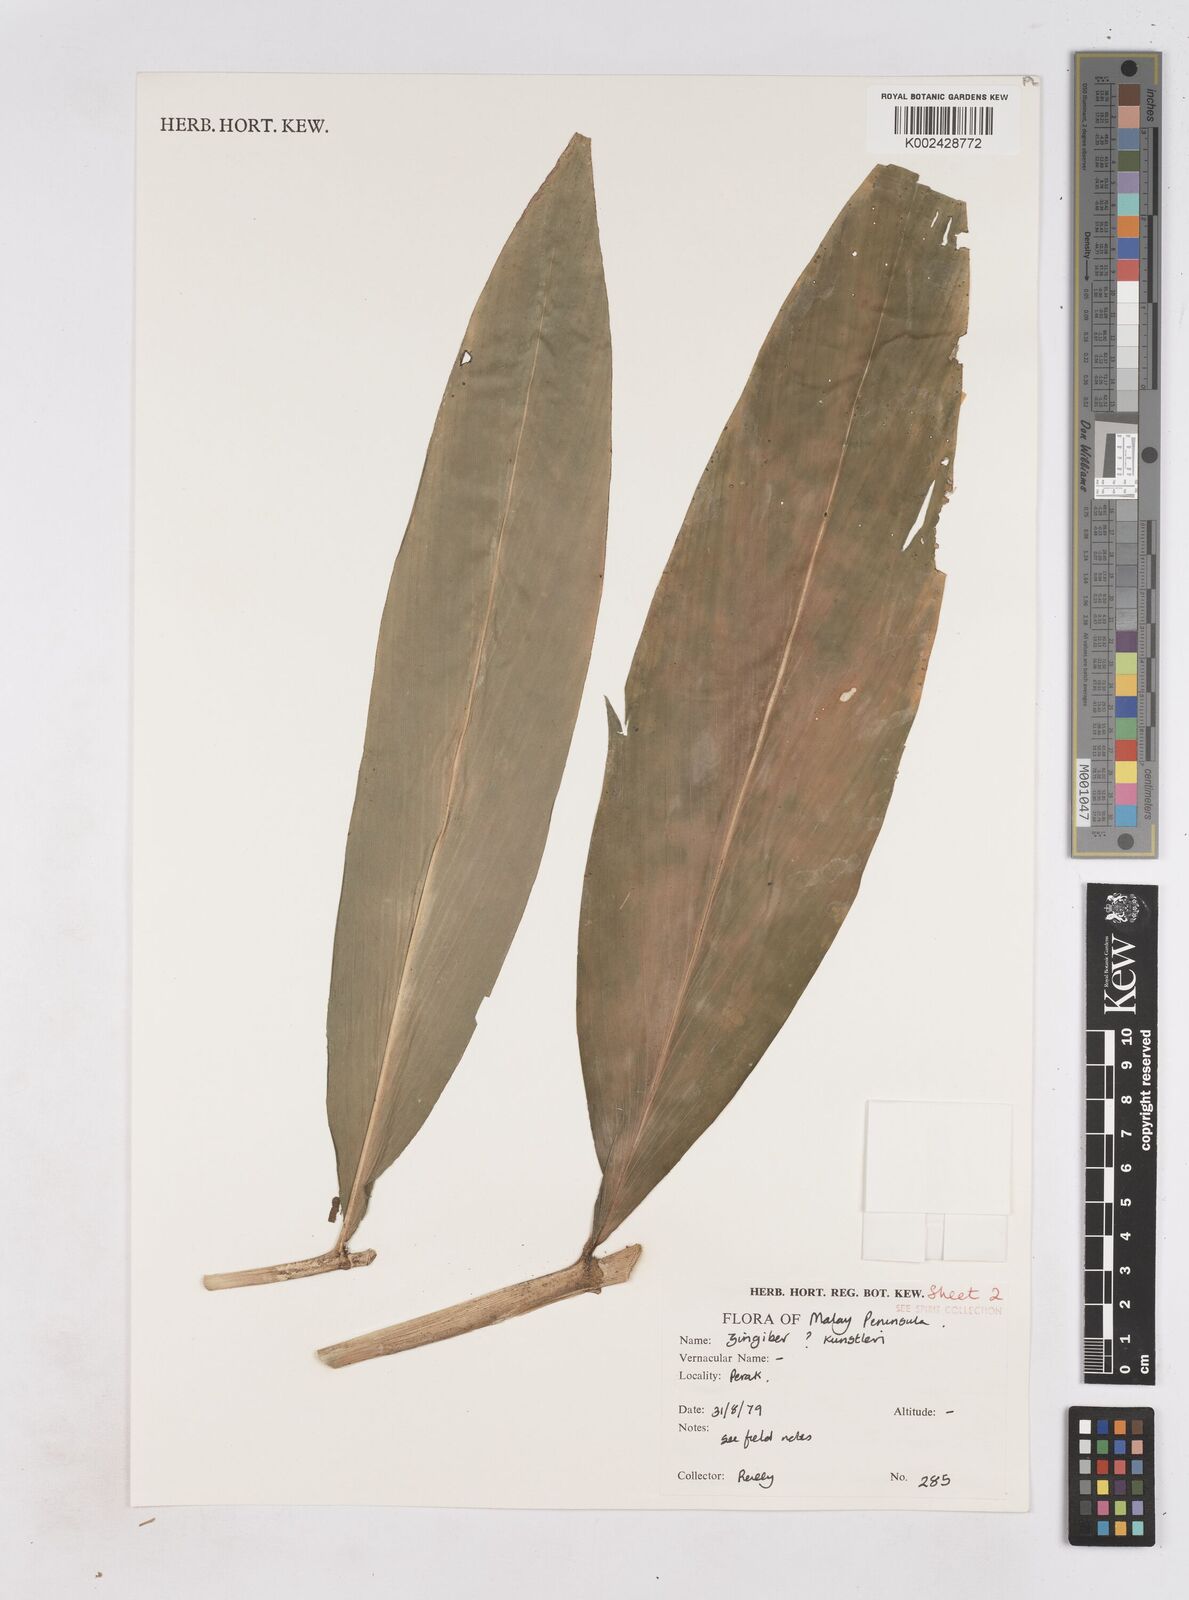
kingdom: Plantae
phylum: Tracheophyta
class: Liliopsida
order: Zingiberales
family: Zingiberaceae
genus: Zingiber
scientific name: Zingiber kunstleri
